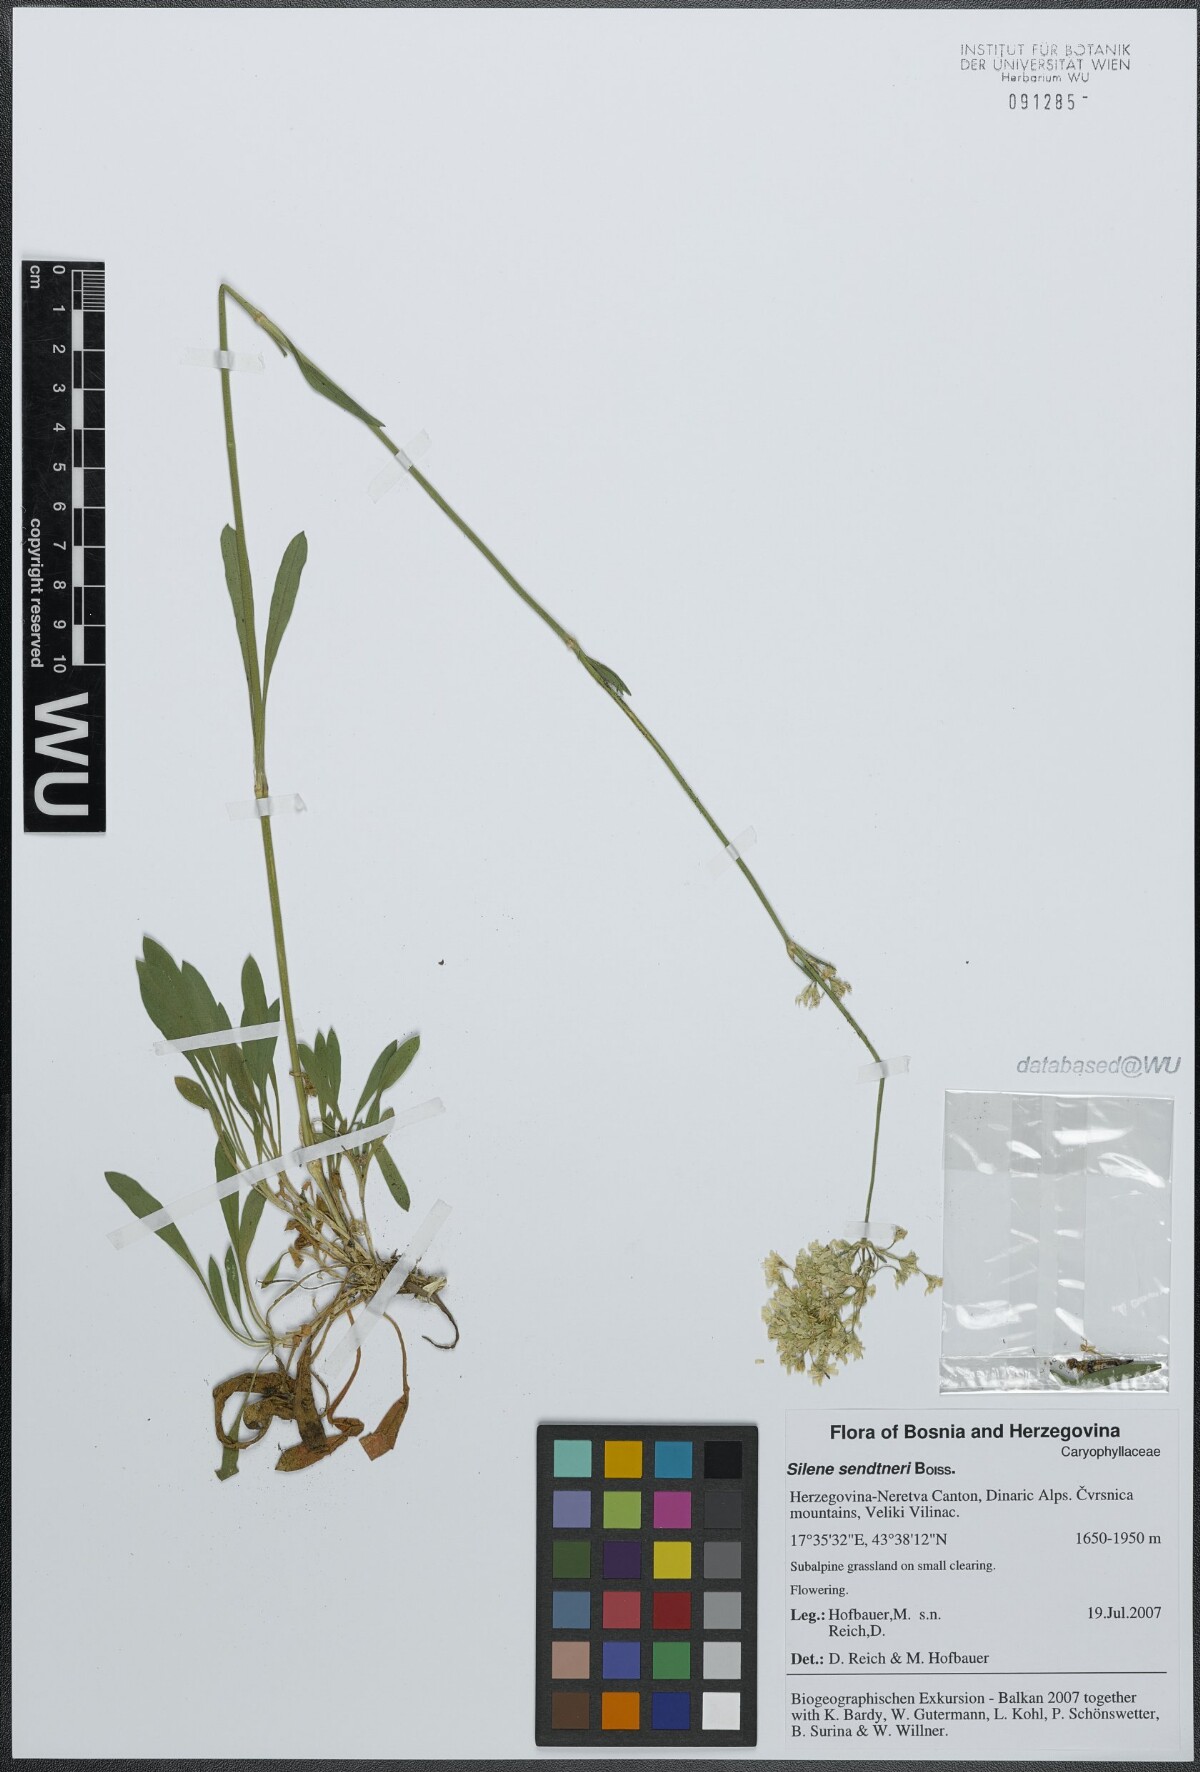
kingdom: Plantae
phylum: Tracheophyta
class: Magnoliopsida
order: Caryophyllales
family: Caryophyllaceae
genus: Silene
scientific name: Silene sendtneri
